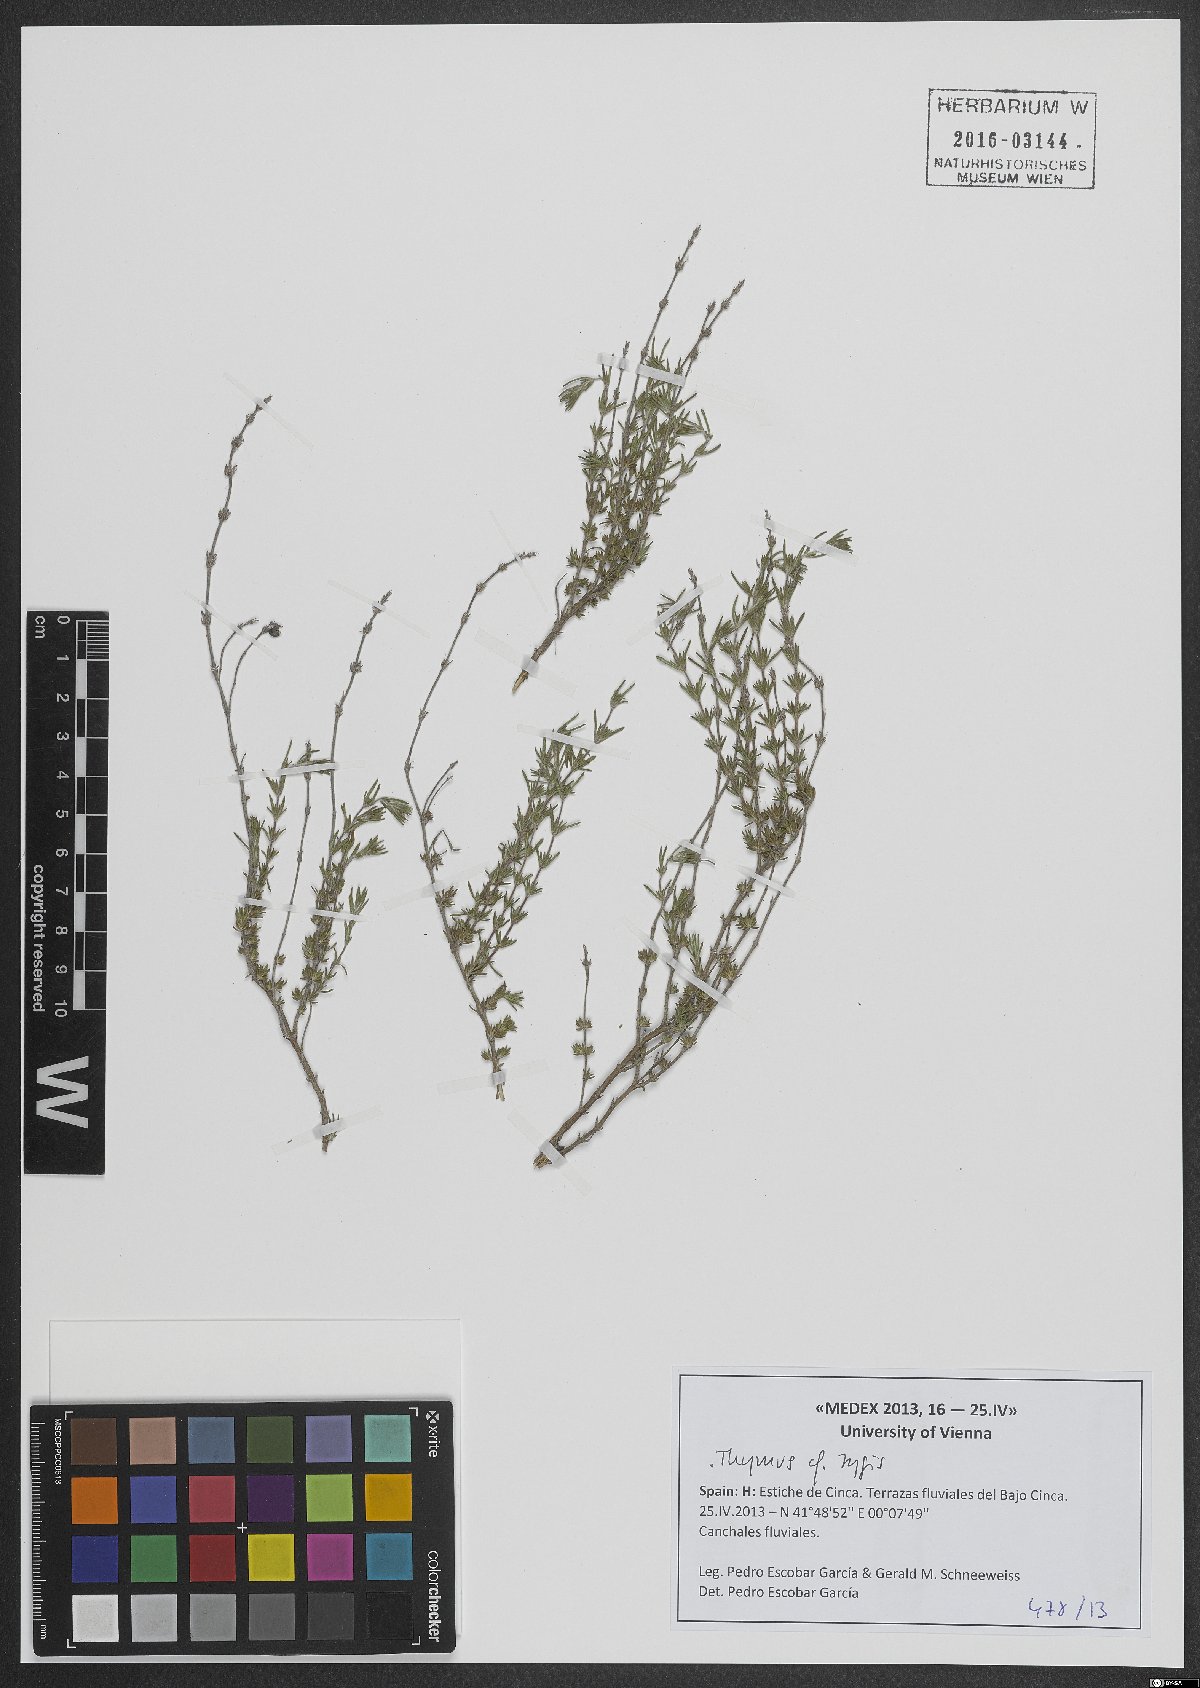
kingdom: Plantae
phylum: Tracheophyta
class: Magnoliopsida
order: Lamiales
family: Lamiaceae
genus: Thymus
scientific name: Thymus zygis
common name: White thyme
